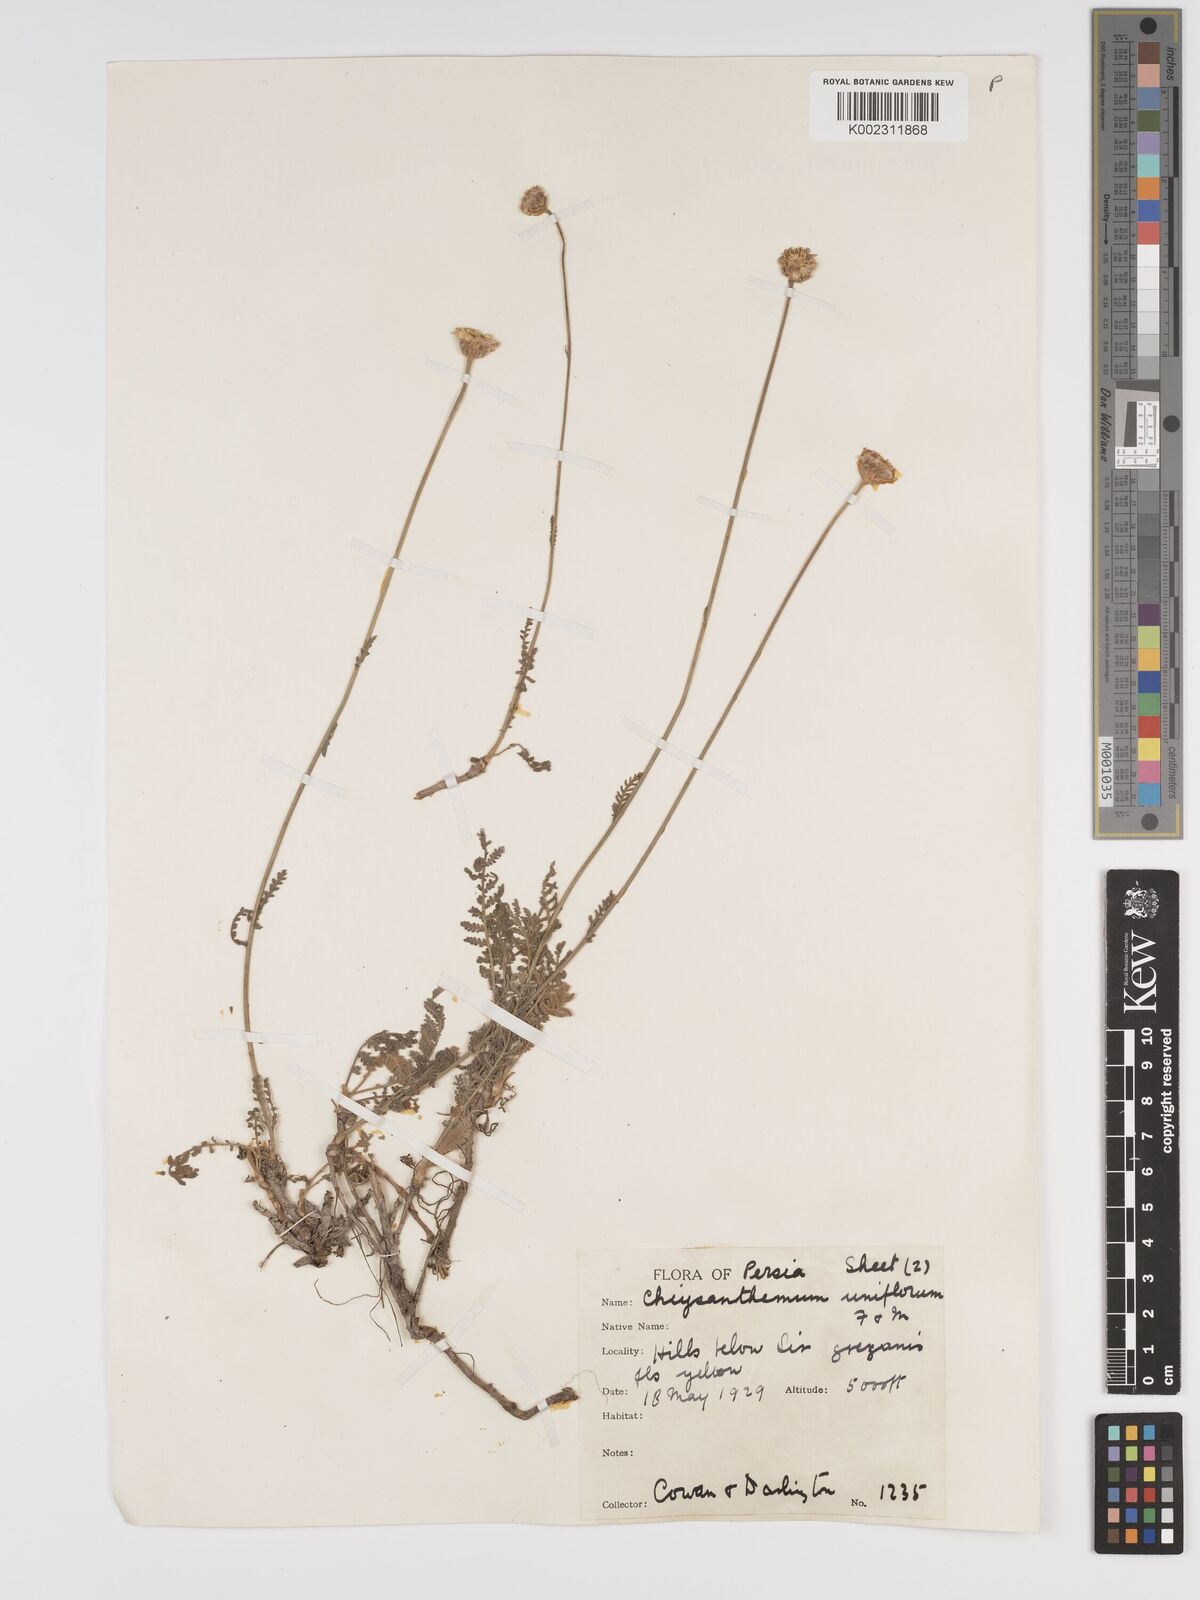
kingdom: Plantae
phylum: Tracheophyta
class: Magnoliopsida
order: Asterales
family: Asteraceae
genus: Tanacetum
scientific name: Tanacetum uniflorum
